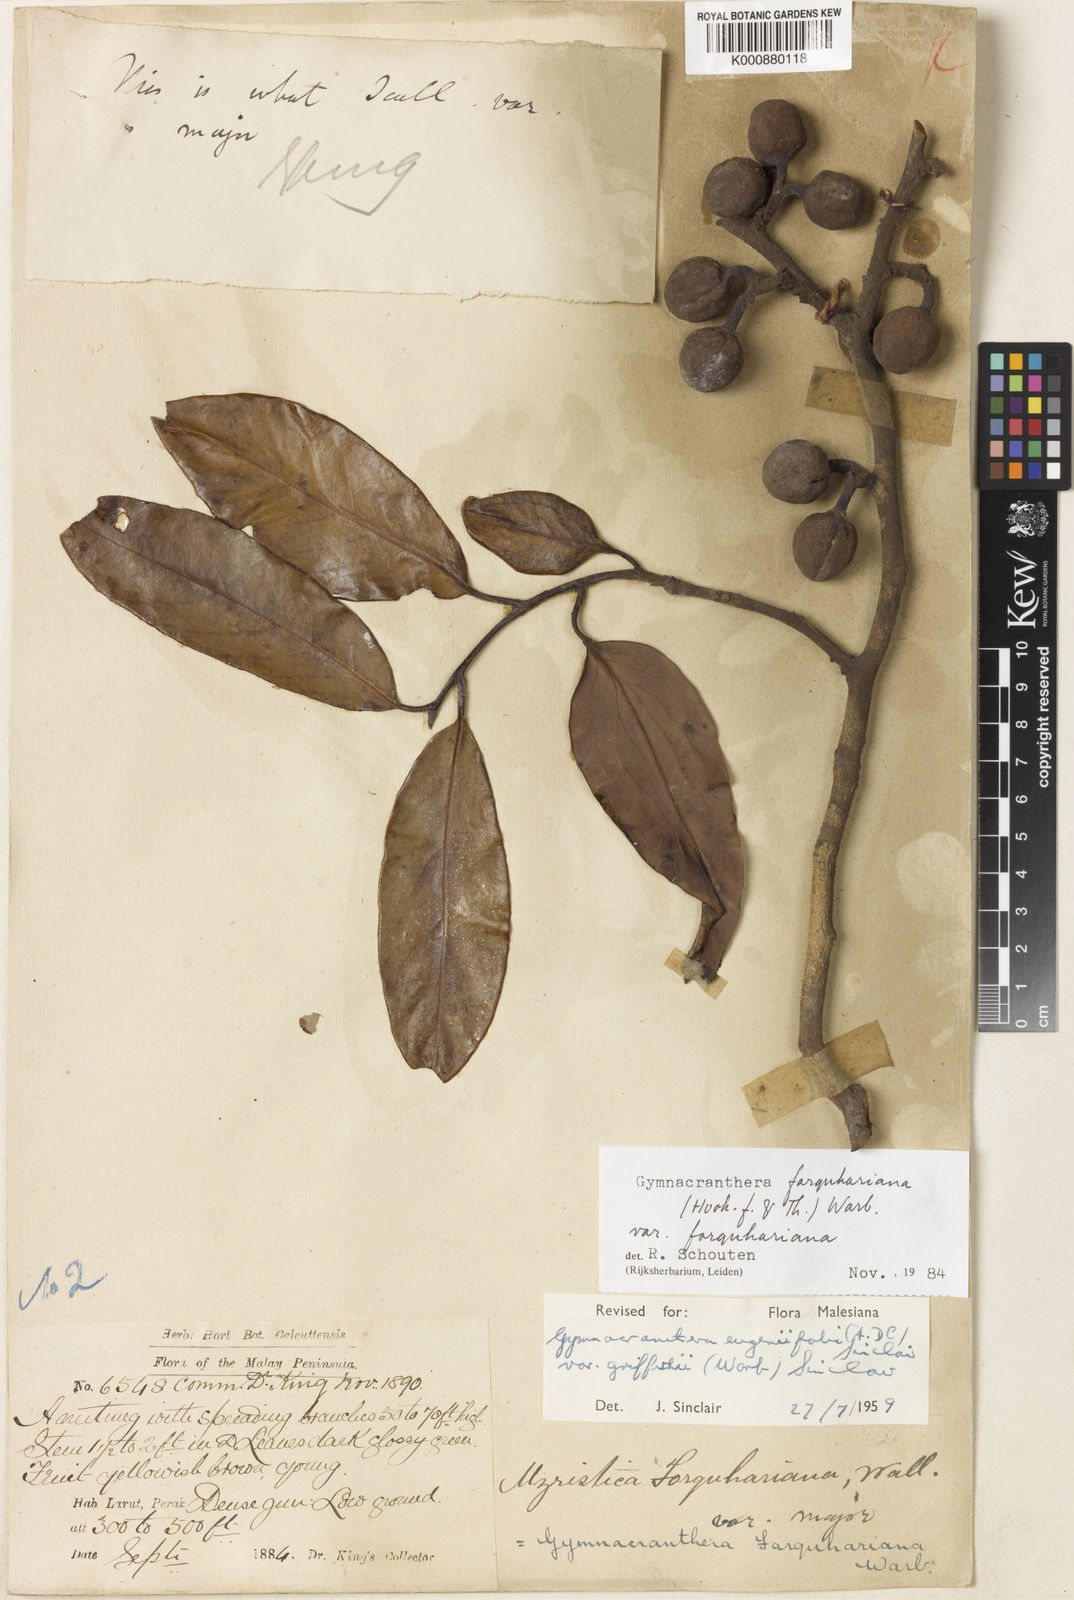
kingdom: Plantae
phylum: Tracheophyta
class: Magnoliopsida
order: Magnoliales
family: Myristicaceae
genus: Gymnacranthera
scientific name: Gymnacranthera farquhariana
